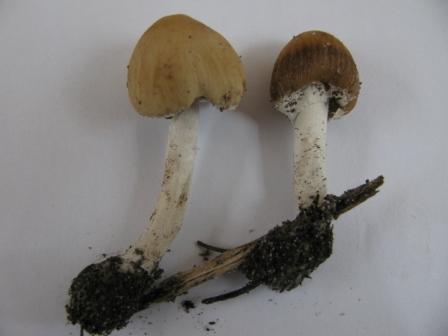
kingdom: Fungi
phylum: Basidiomycota
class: Agaricomycetes
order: Agaricales
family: Psathyrellaceae
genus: Candolleomyces
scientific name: Candolleomyces candolleanus
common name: Candolles mørkhat
